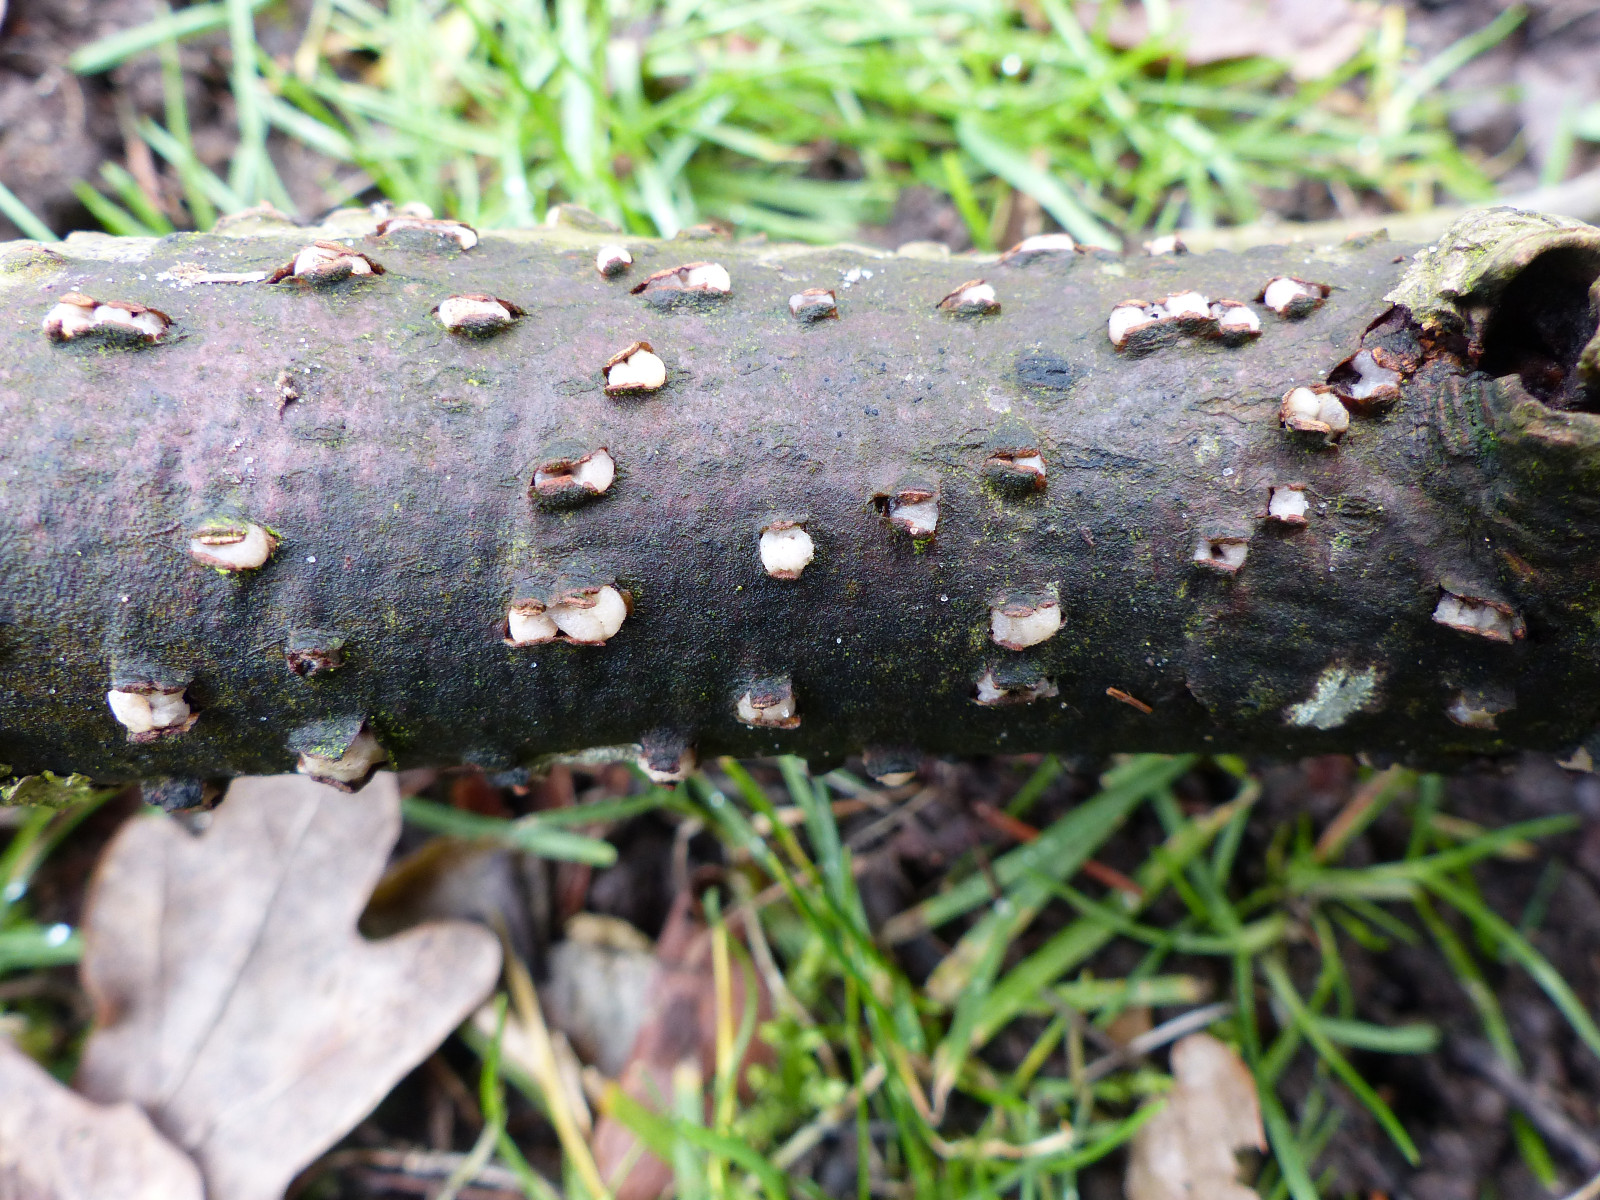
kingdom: Fungi
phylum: Basidiomycota
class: Pucciniomycetes
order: Platygloeales
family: Platygloeaceae
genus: Platygloea
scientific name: Platygloea disciformis
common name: linde-slimklat
